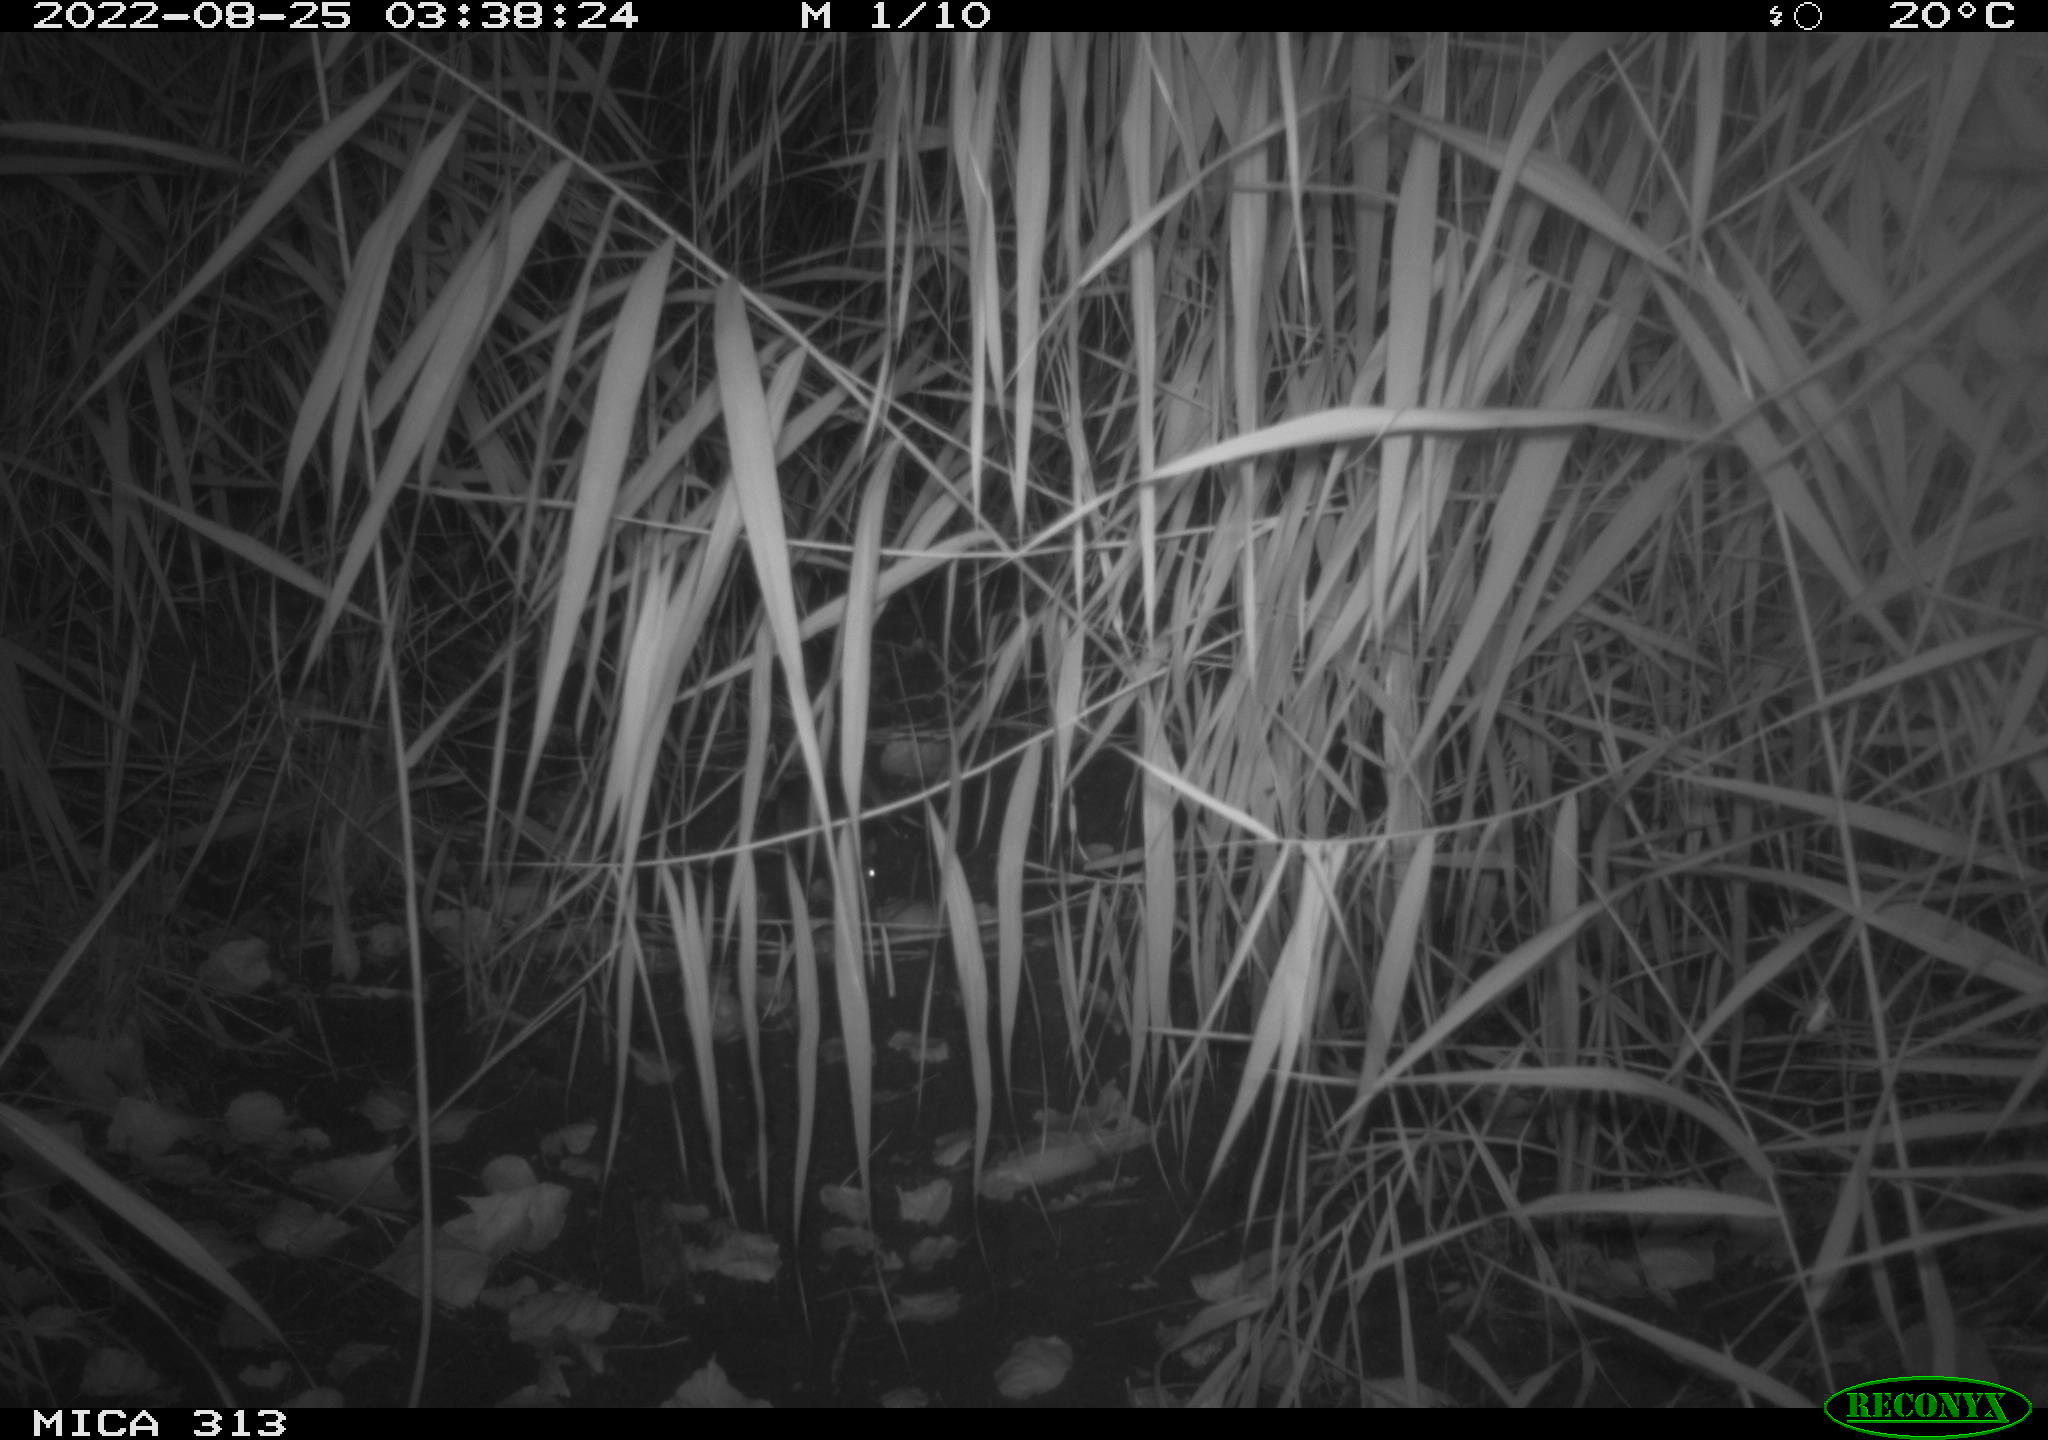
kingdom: Animalia
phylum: Chordata
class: Mammalia
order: Rodentia
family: Muridae
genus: Rattus
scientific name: Rattus norvegicus
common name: Brown rat
